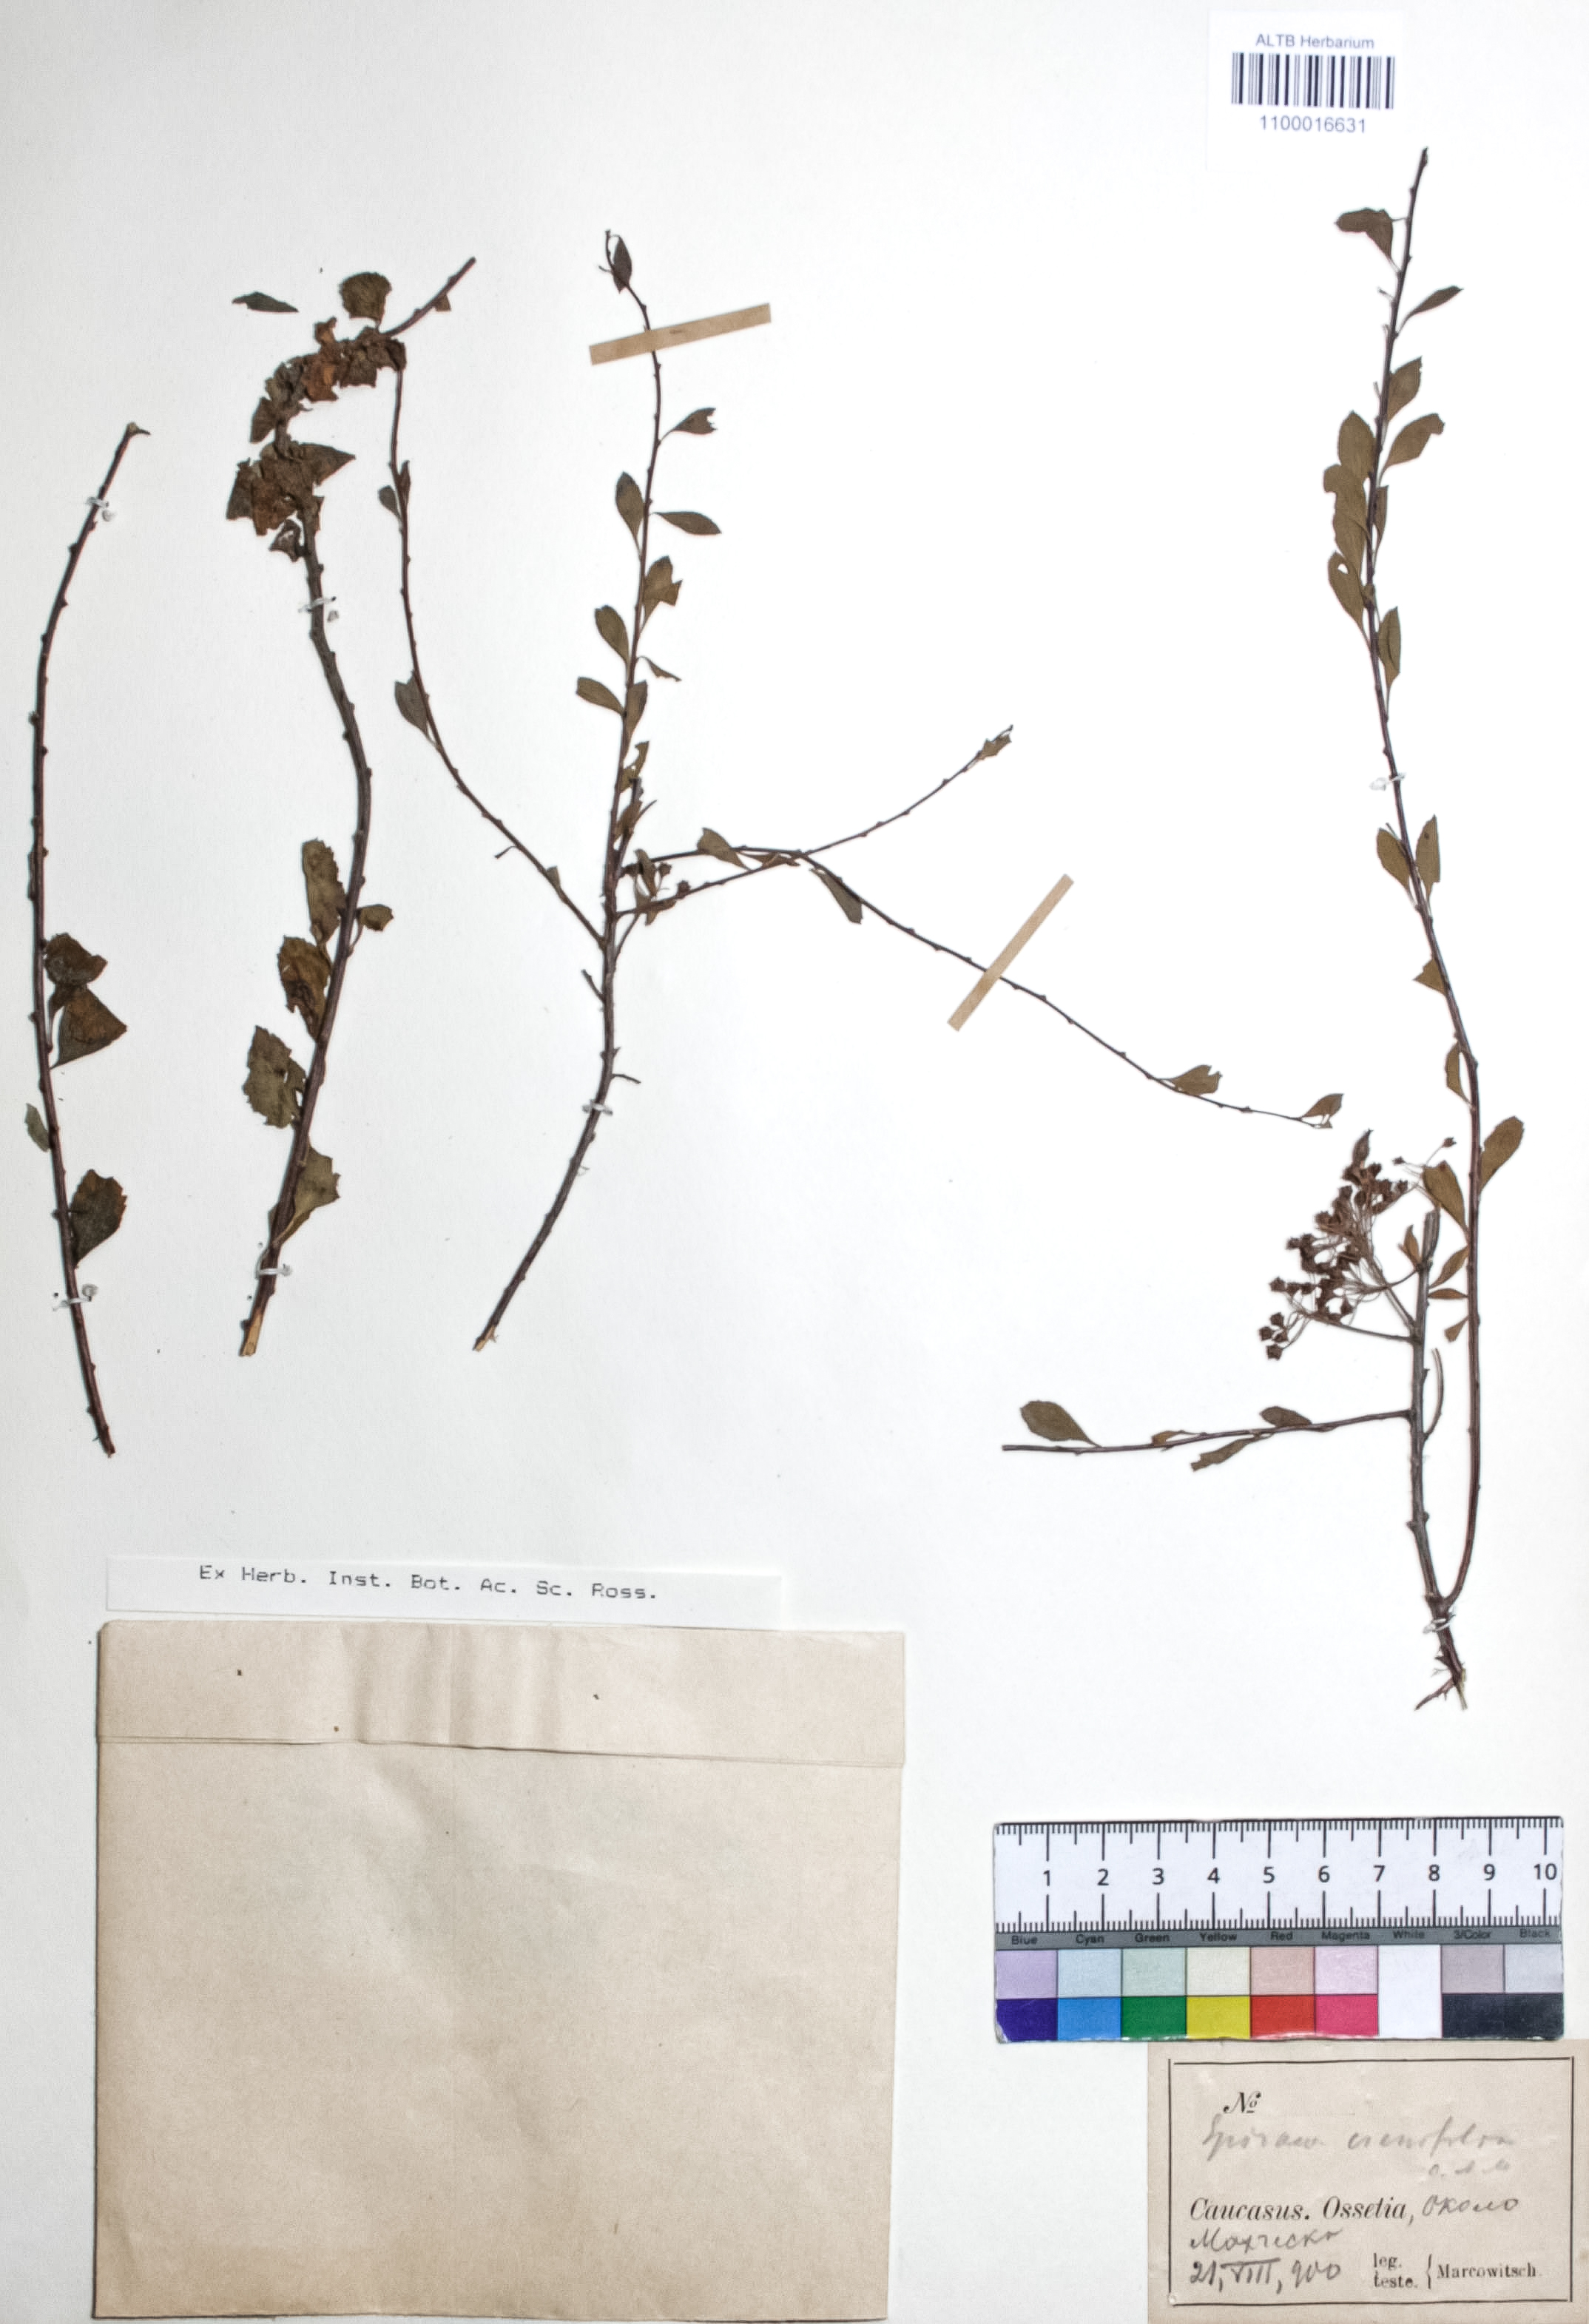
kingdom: Plantae
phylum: Tracheophyta
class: Magnoliopsida
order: Rosales
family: Rosaceae
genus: Spiraea
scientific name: Spiraea crenata
